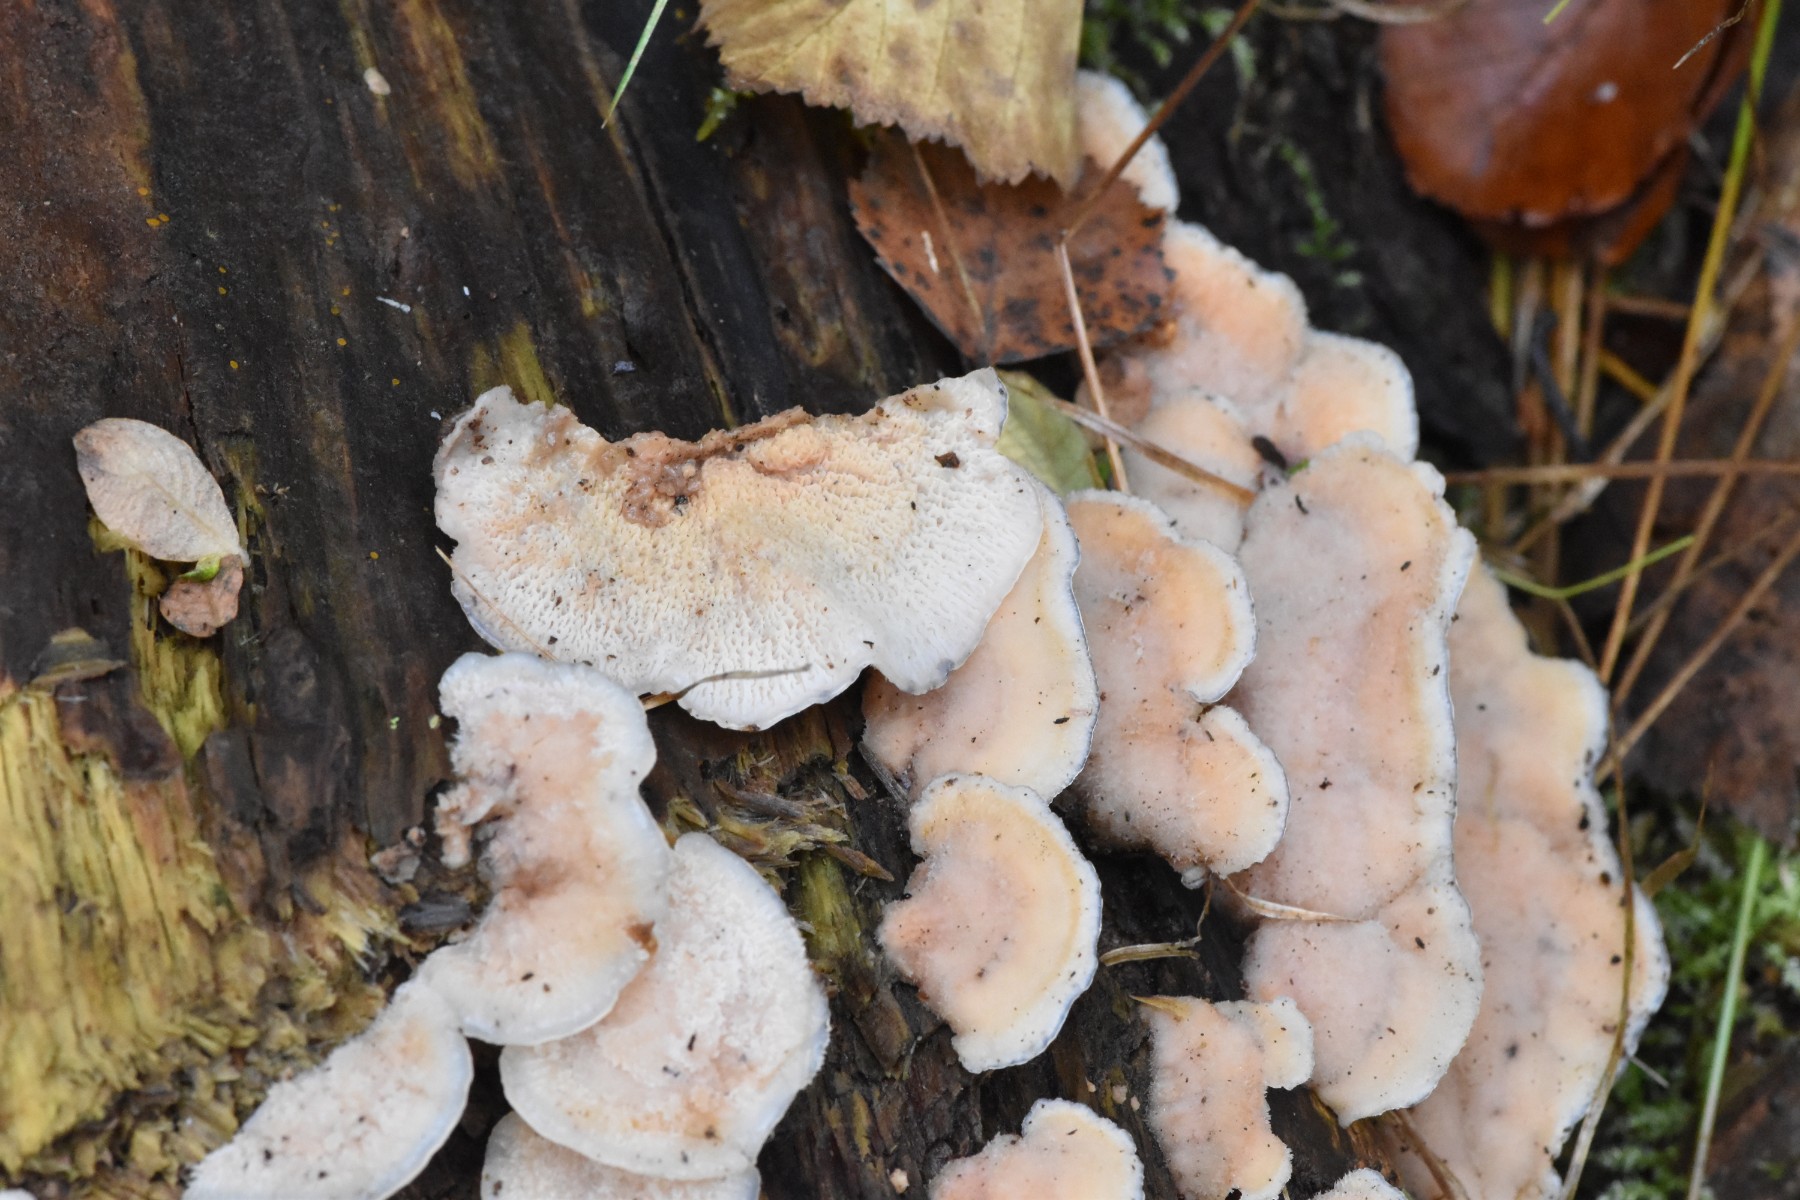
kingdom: Fungi
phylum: Basidiomycota
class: Agaricomycetes
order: Polyporales
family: Meruliaceae
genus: Phlebia
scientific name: Phlebia tremellosa
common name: bævrende åresvamp
